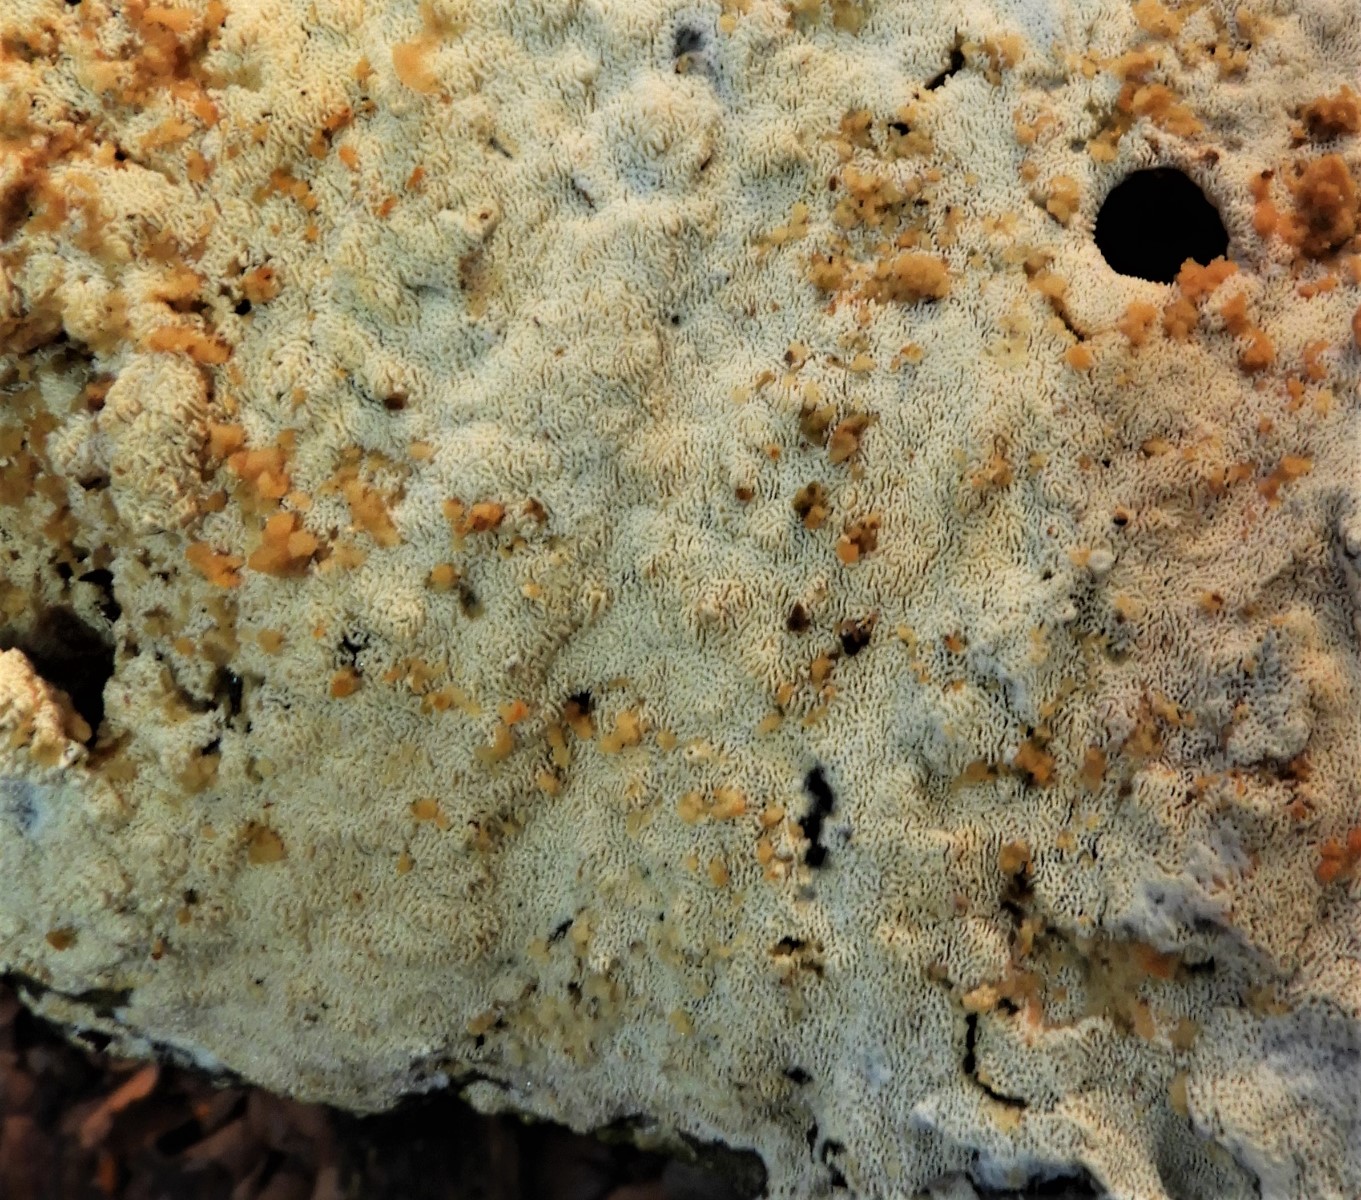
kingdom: Fungi
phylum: Basidiomycota
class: Agaricomycetes
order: Hymenochaetales
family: Schizoporaceae
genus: Xylodon
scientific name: Xylodon subtropicus
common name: labyrint-tandsvamp
